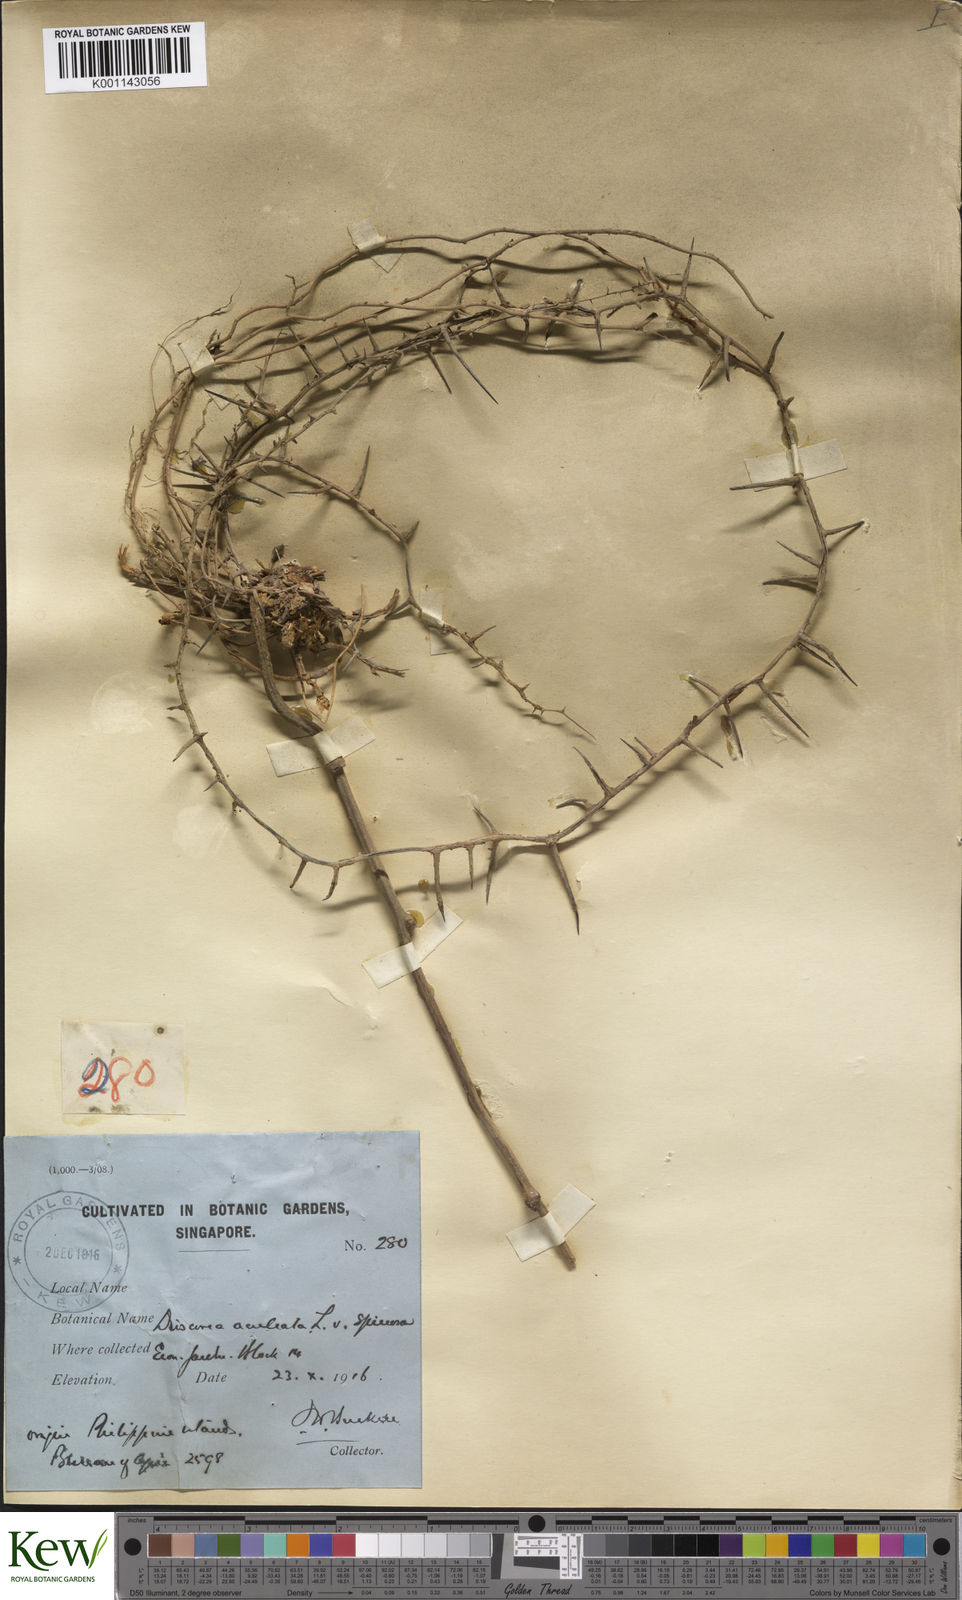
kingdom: Plantae
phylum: Tracheophyta
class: Liliopsida
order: Dioscoreales
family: Dioscoreaceae
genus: Dioscorea
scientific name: Dioscorea esculenta
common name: Chinese yam
